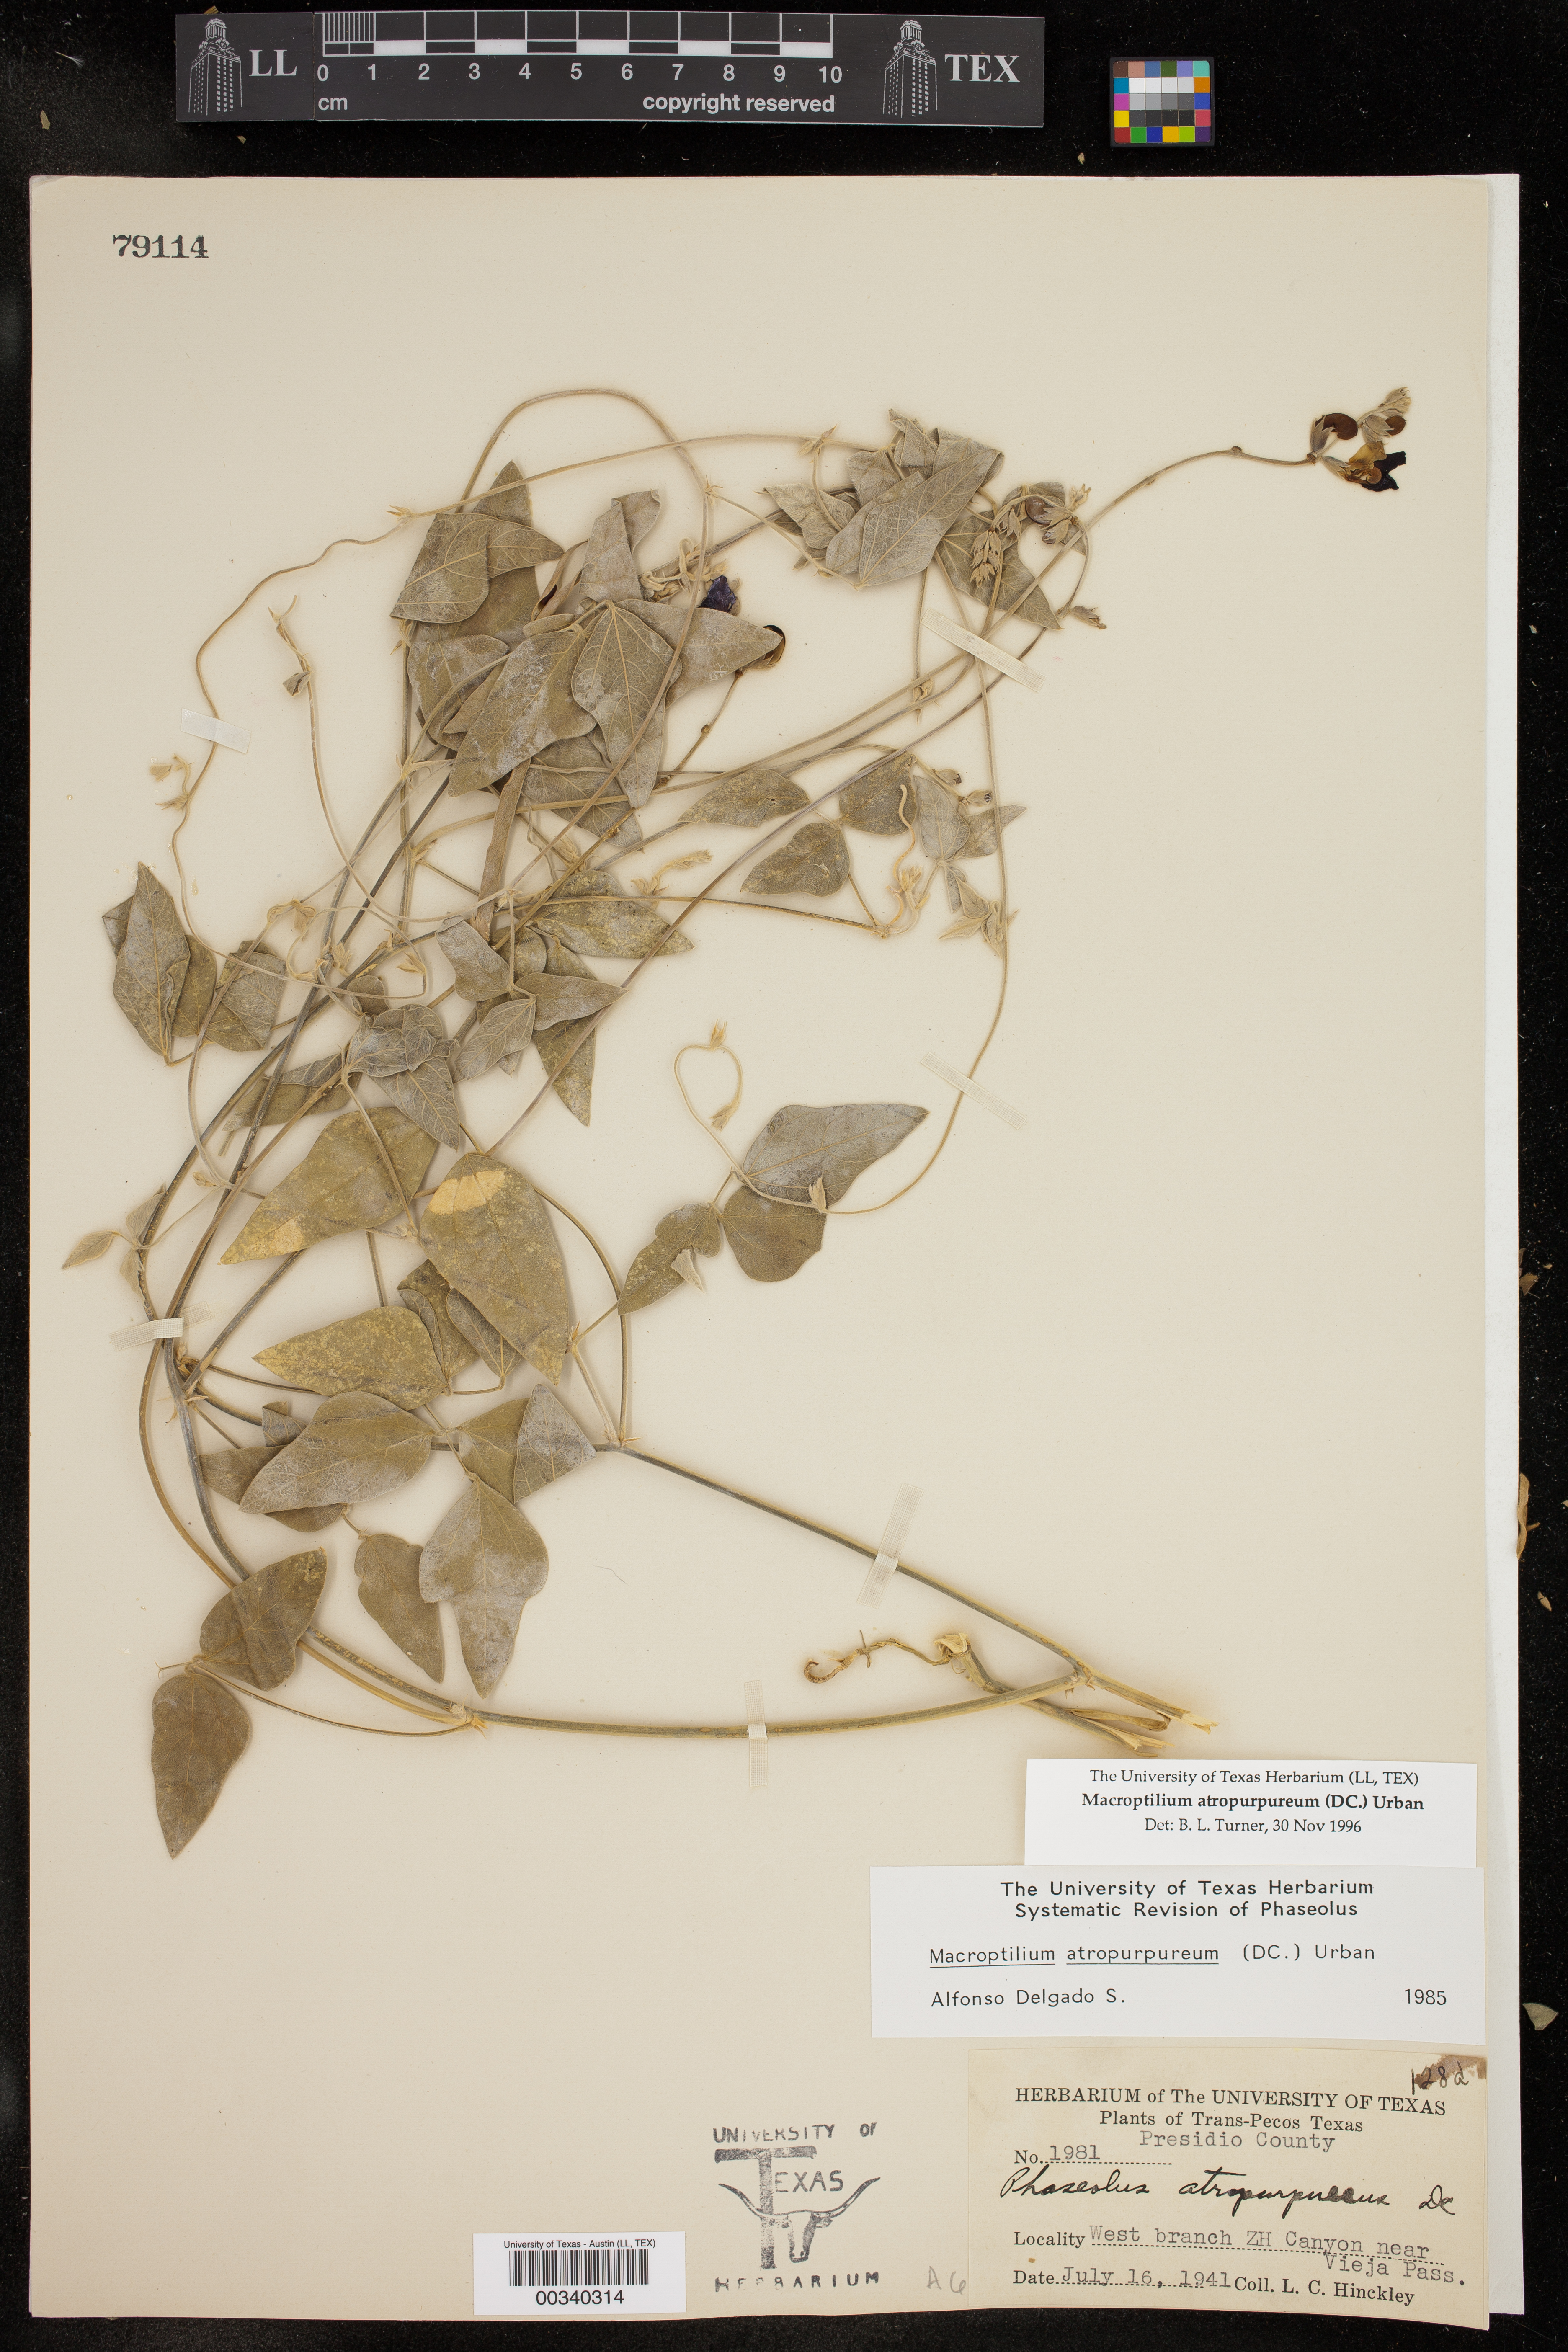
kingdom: Plantae
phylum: Tracheophyta
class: Magnoliopsida
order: Fabales
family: Fabaceae
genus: Macroptilium
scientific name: Macroptilium atropurpureum
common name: Purple bushbean
